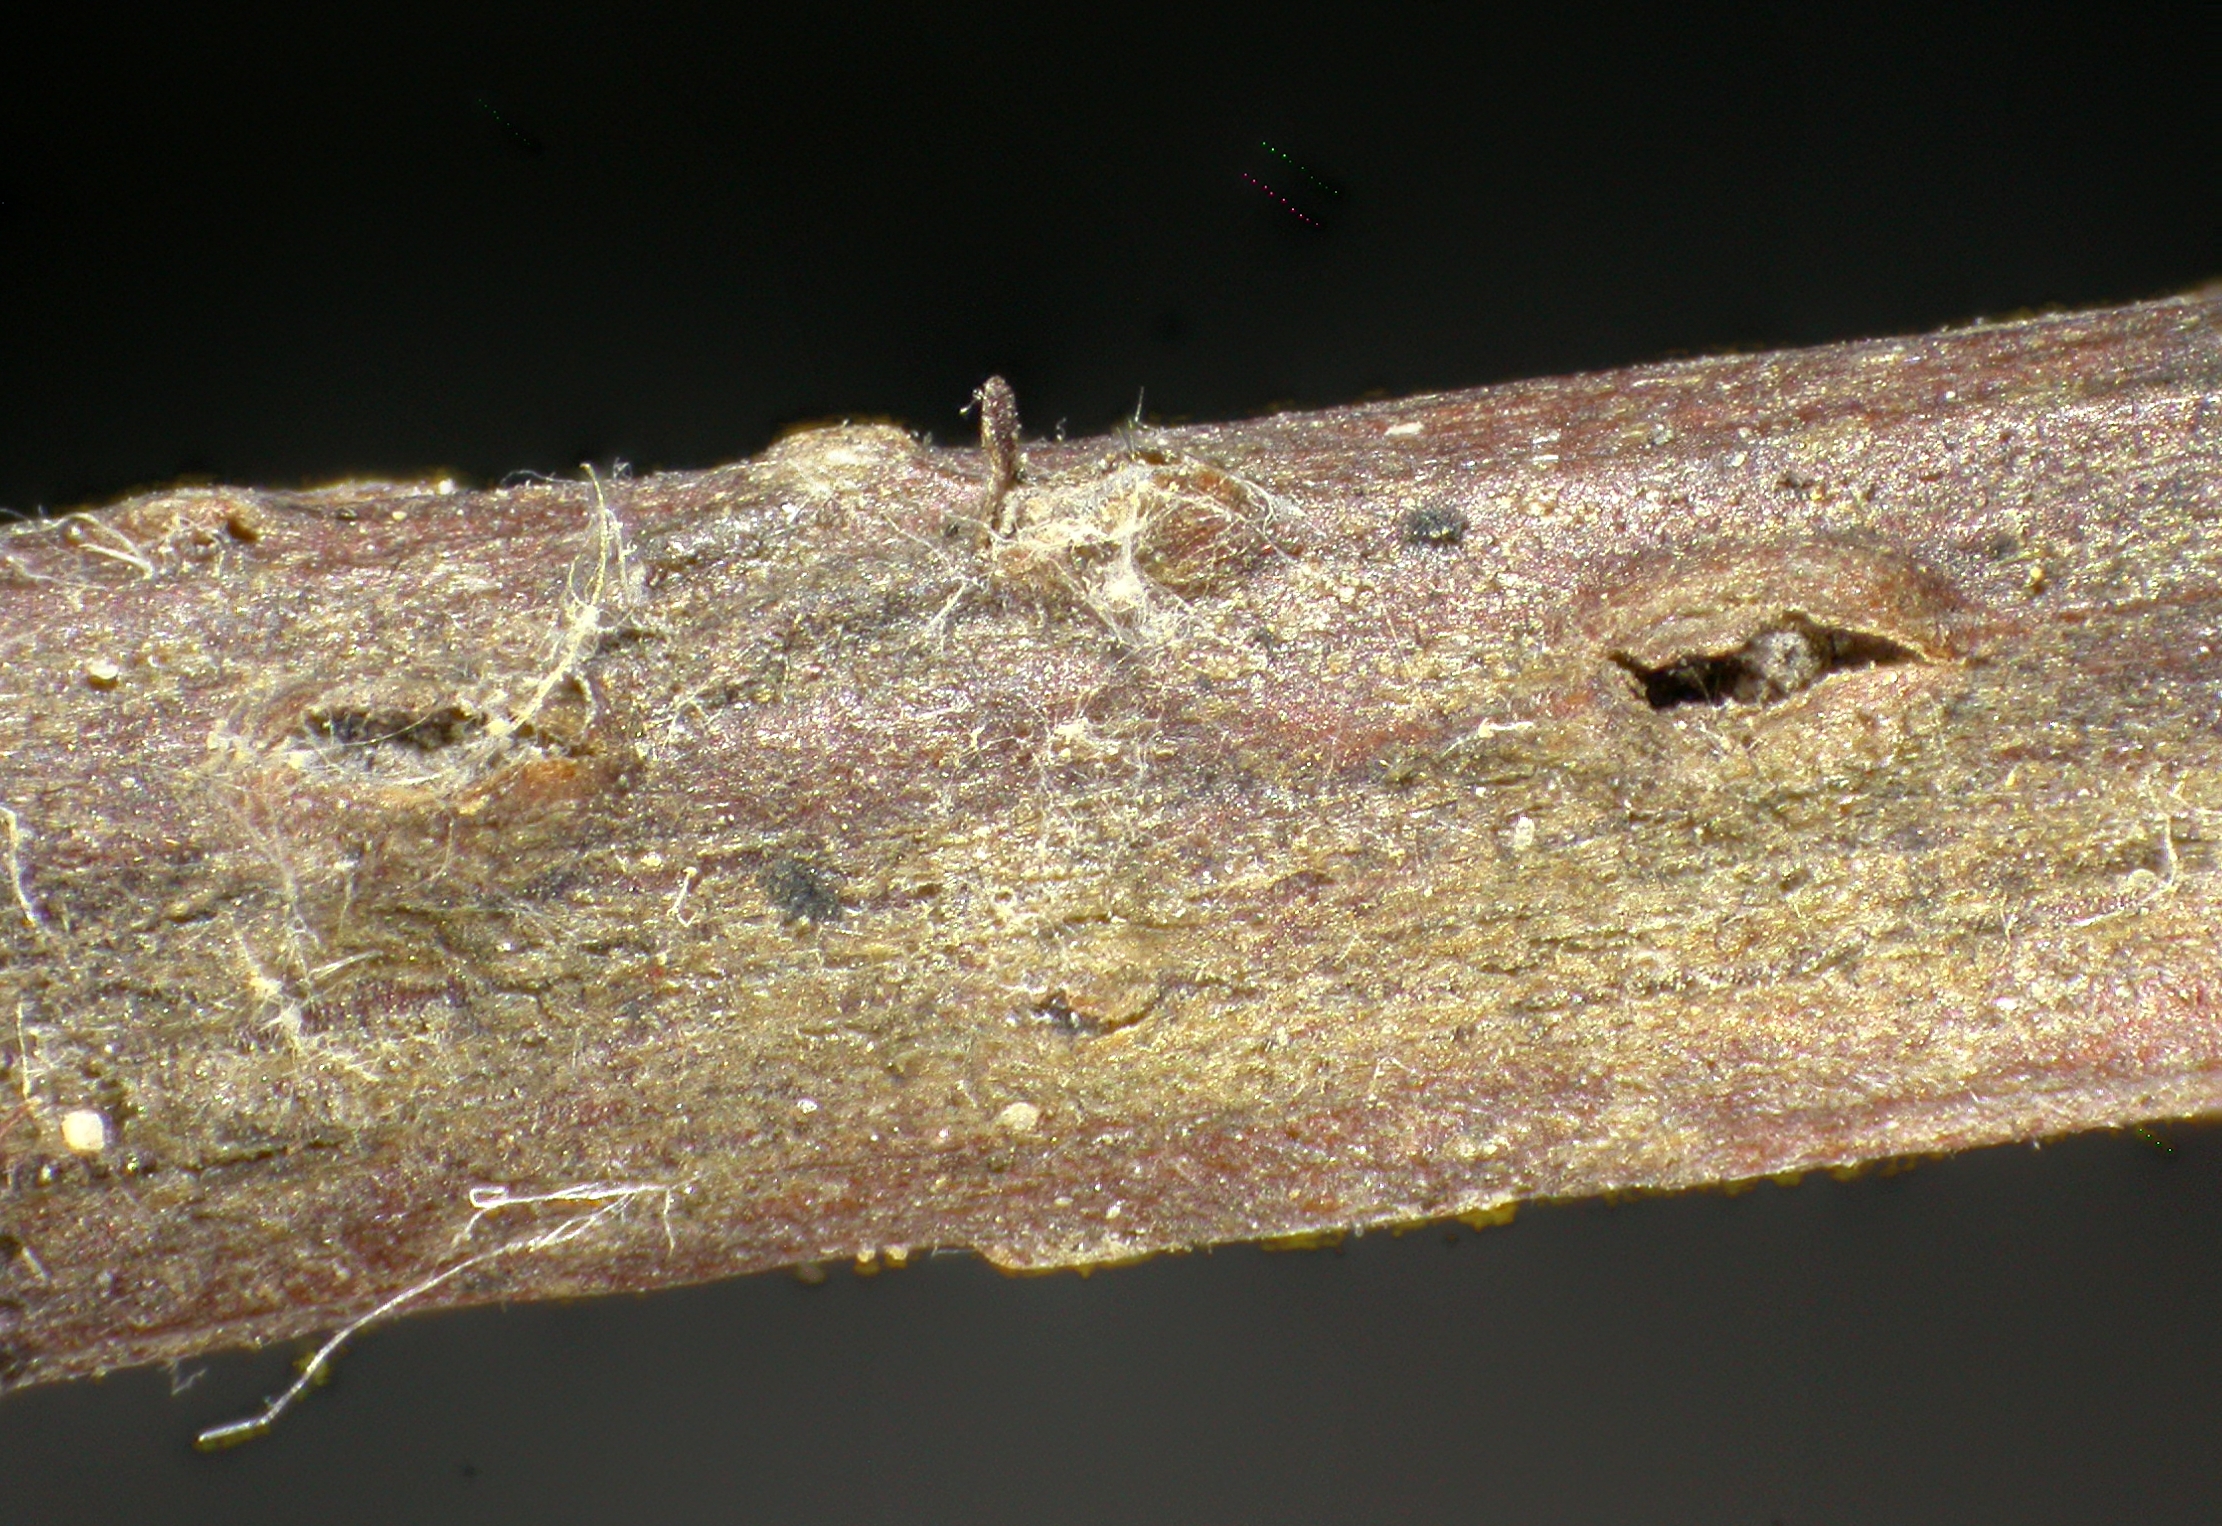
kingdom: Fungi
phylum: Ascomycota
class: Leotiomycetes
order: Phacidiales
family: Phacidiaceae
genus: Pseudophacidium
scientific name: Pseudophacidium rehmii
